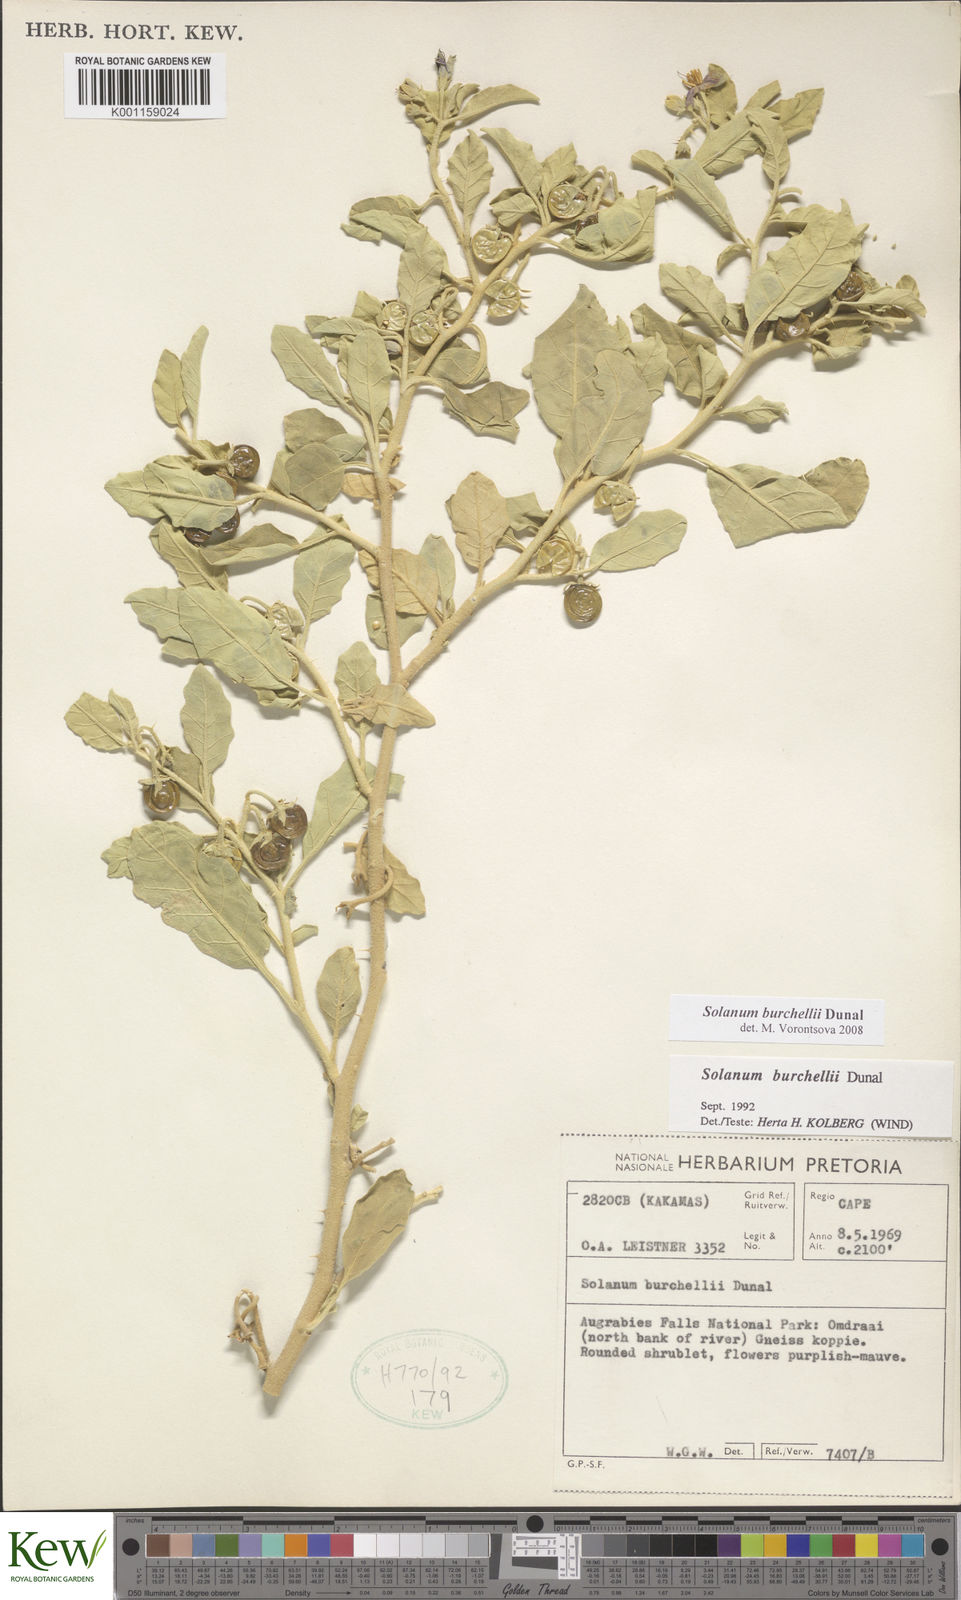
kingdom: Plantae
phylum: Tracheophyta
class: Magnoliopsida
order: Solanales
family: Solanaceae
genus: Solanum
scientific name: Solanum burchellii
